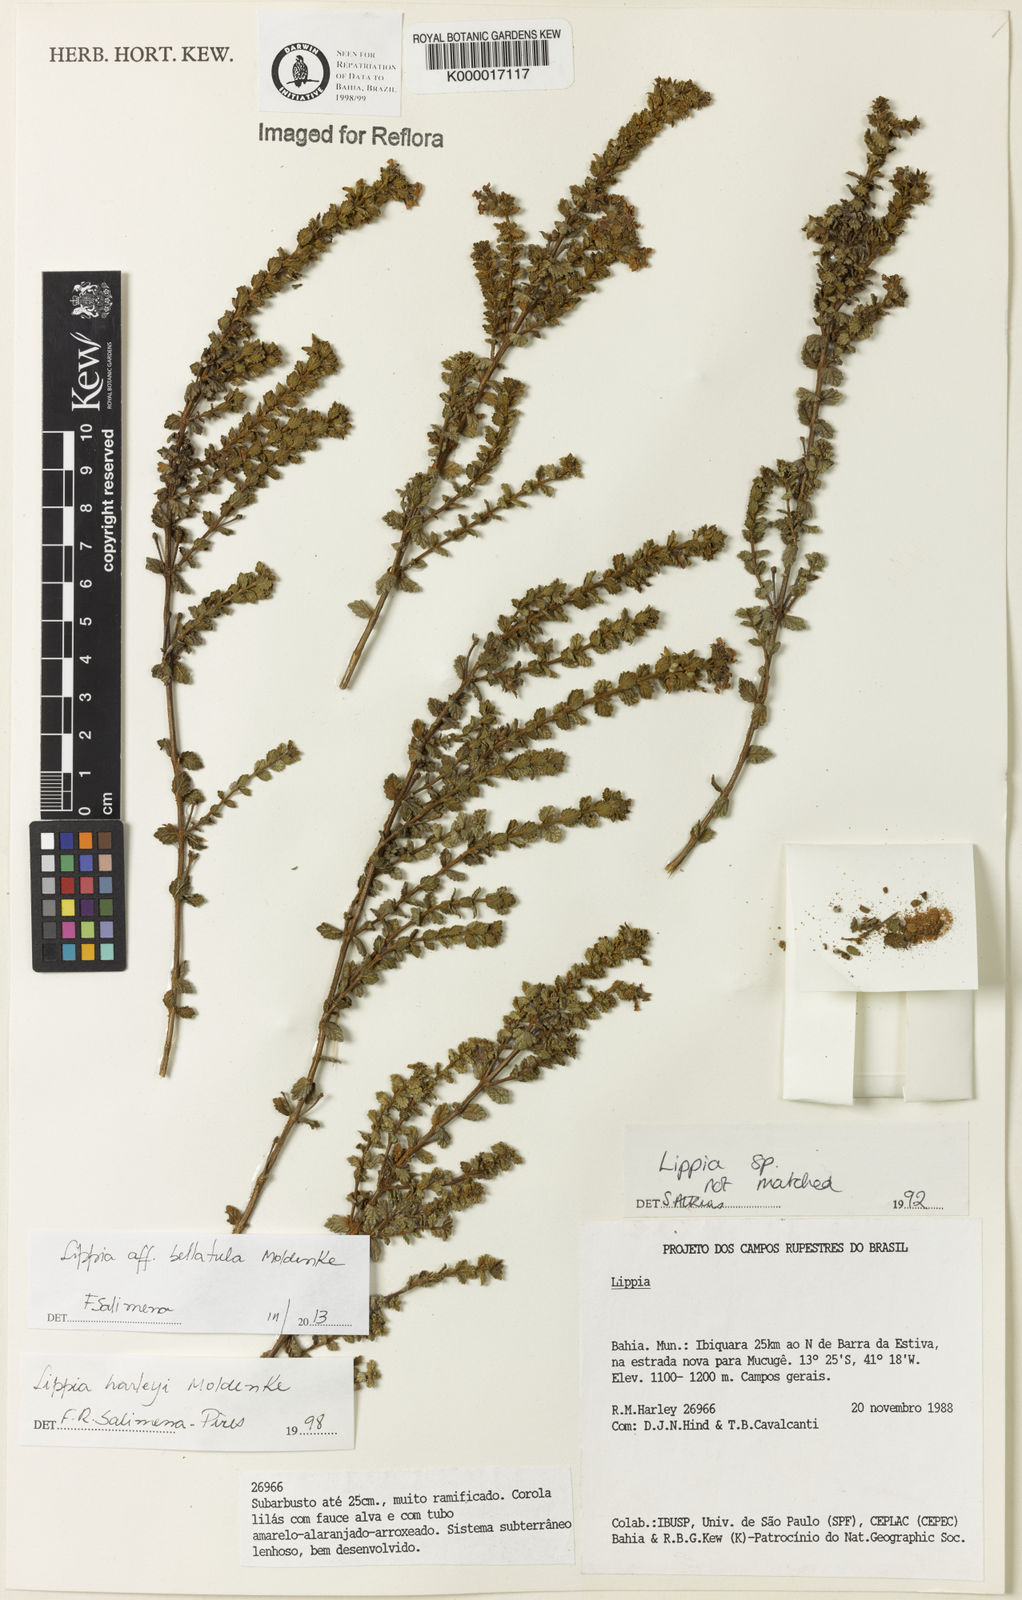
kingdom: Plantae
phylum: Tracheophyta
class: Magnoliopsida
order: Lamiales
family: Verbenaceae
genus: Lippia
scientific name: Lippia harleyi
